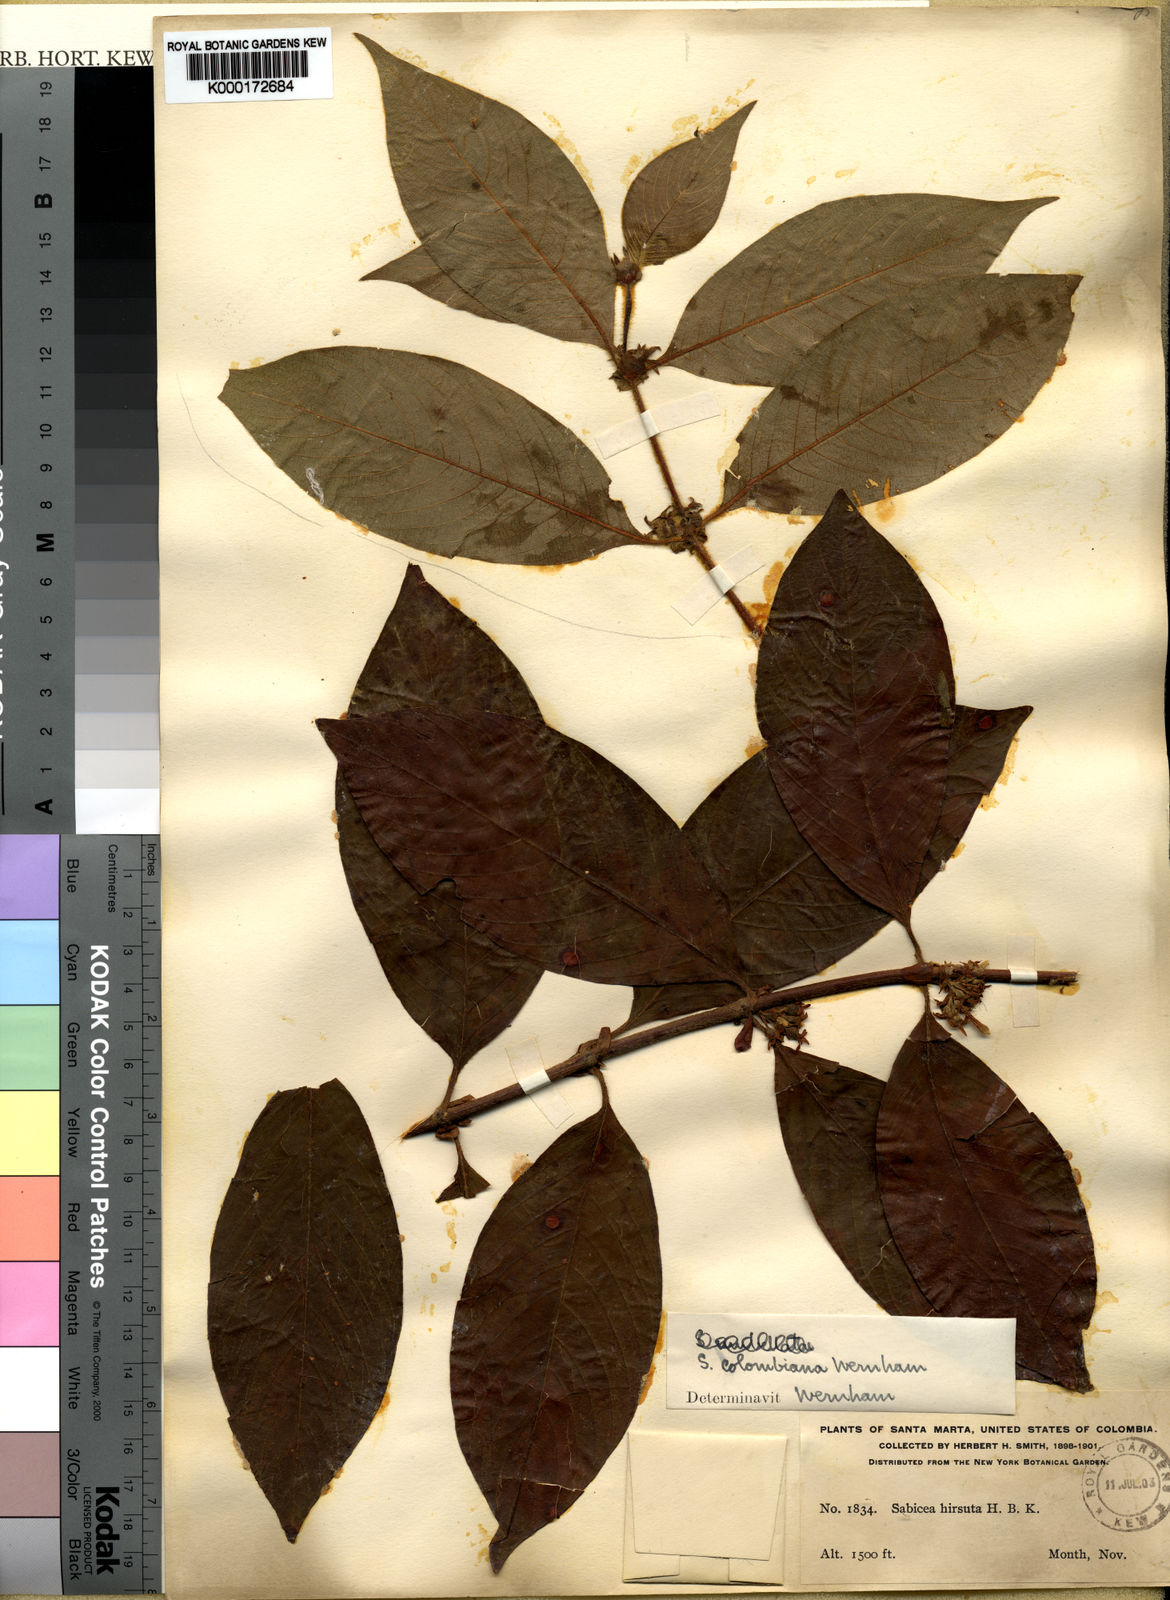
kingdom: Plantae
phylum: Tracheophyta
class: Magnoliopsida
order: Gentianales
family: Rubiaceae
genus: Sabicea
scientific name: Sabicea panamensis
